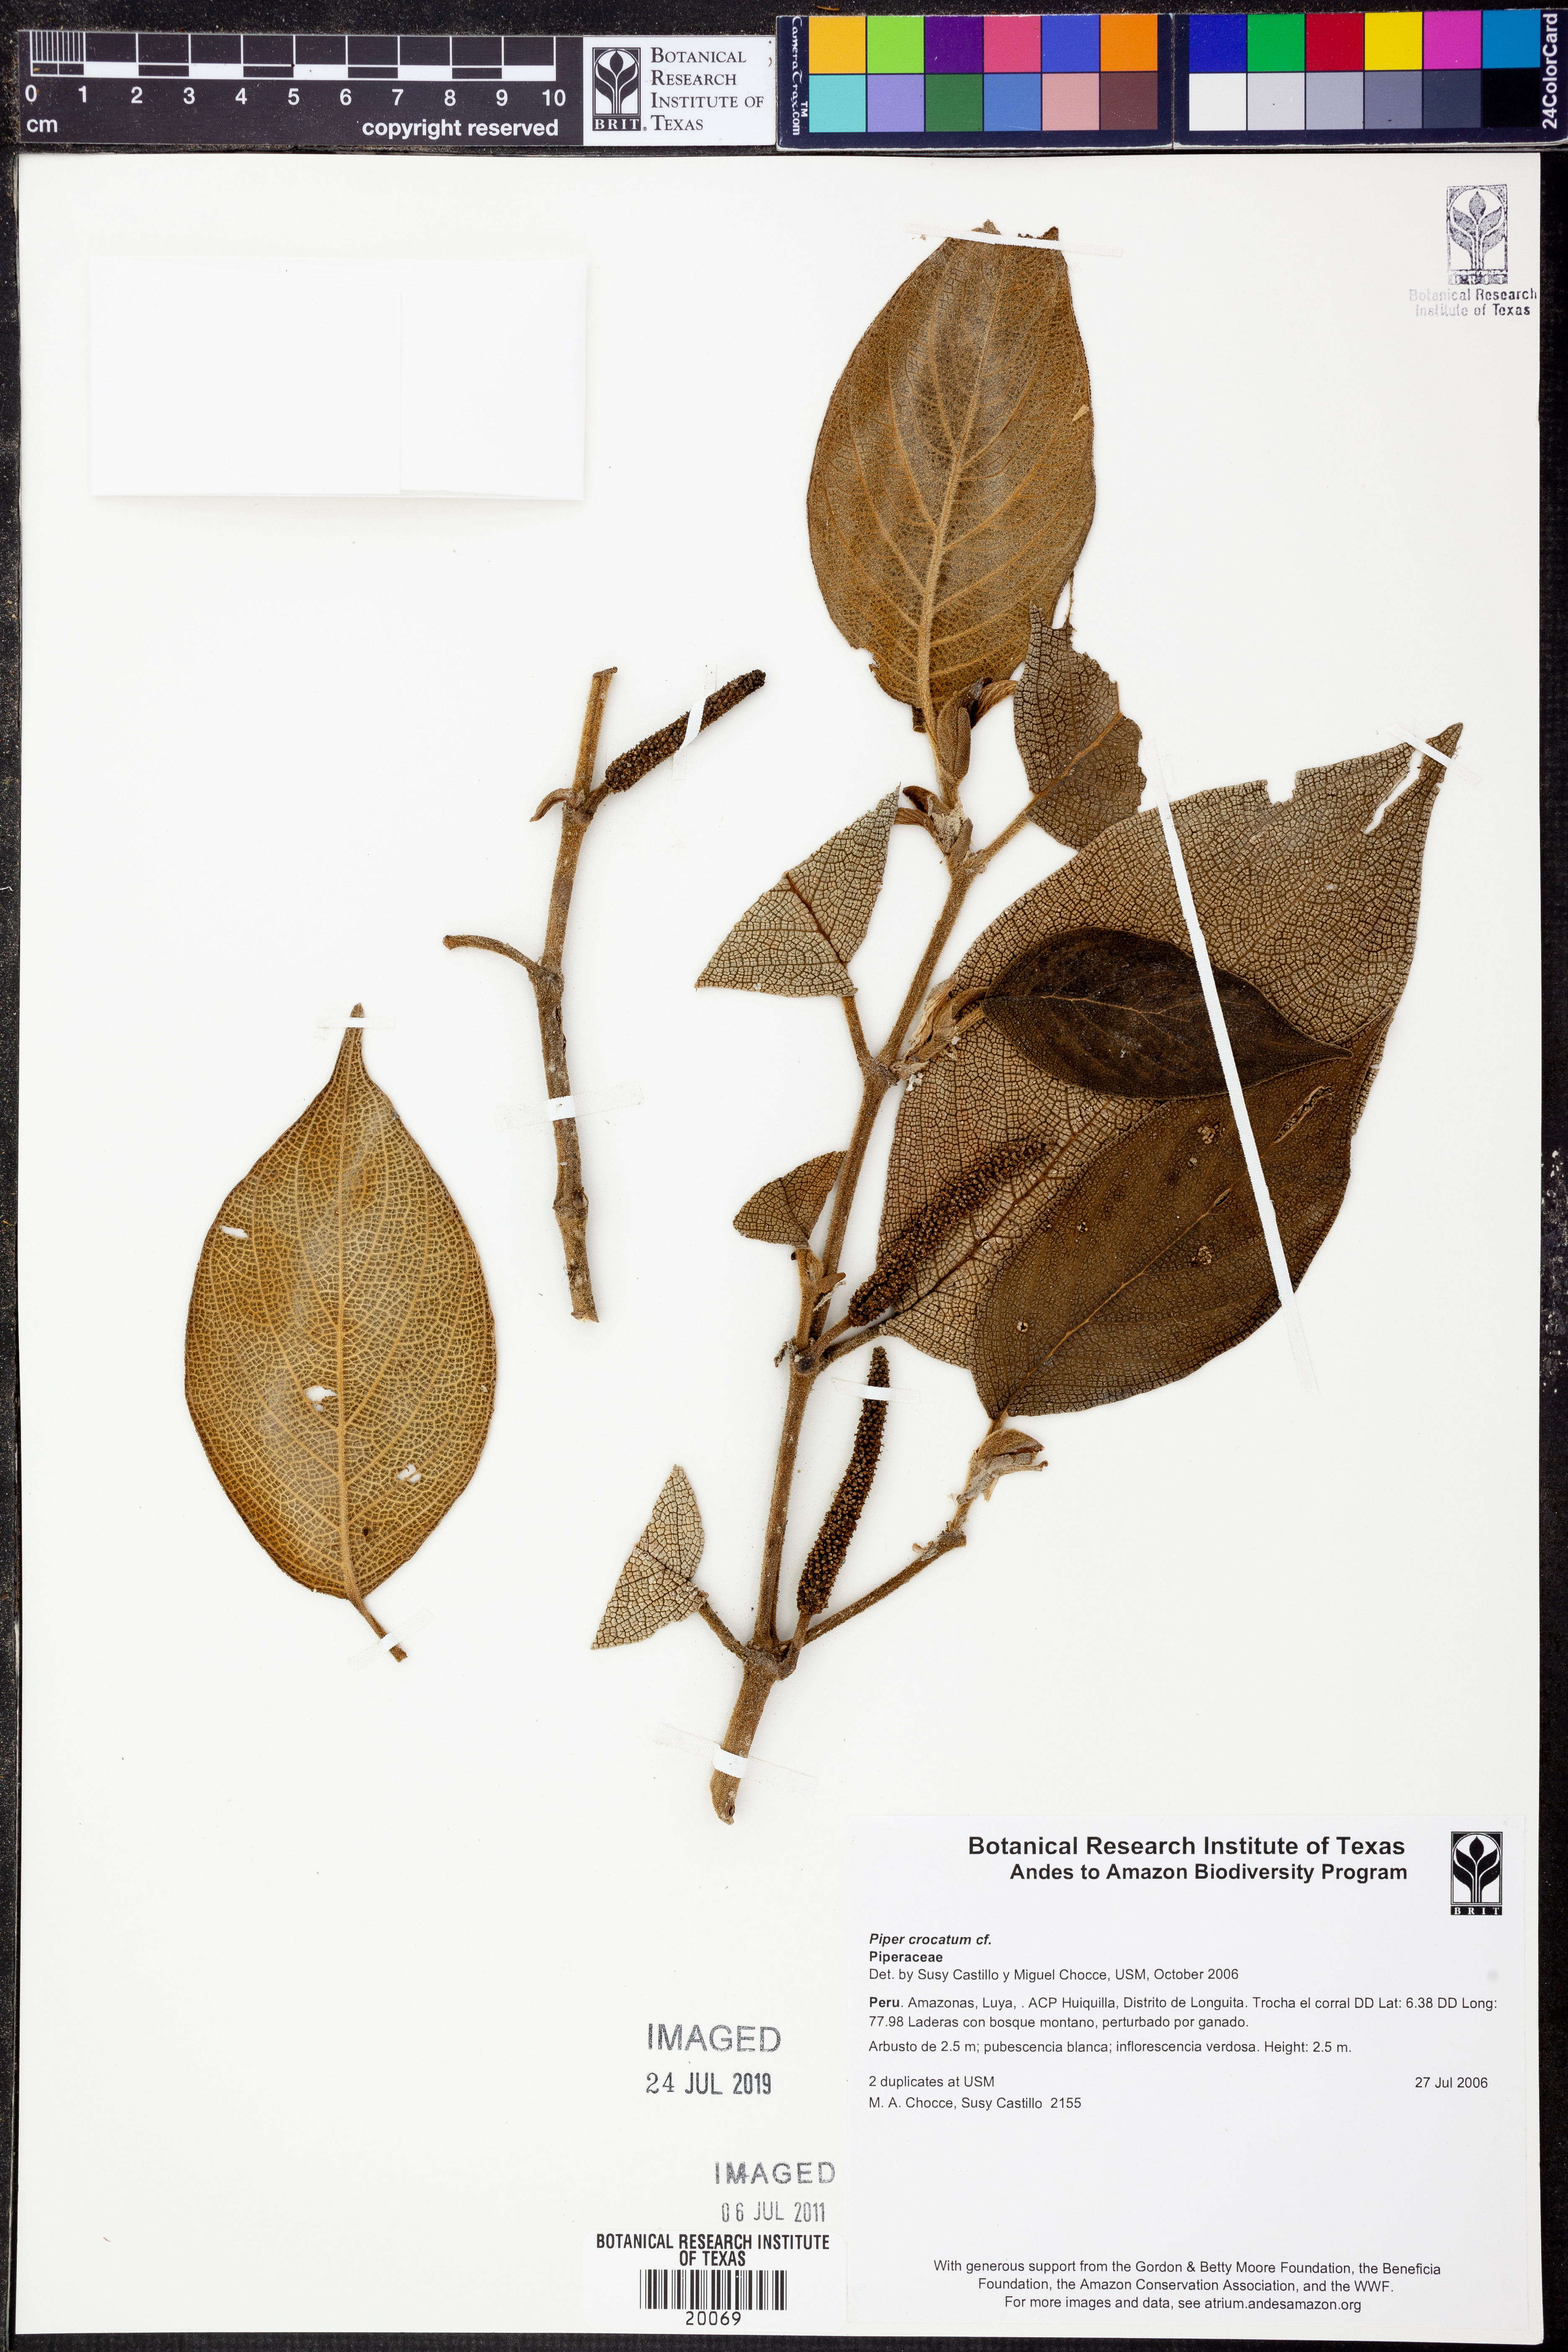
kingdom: Plantae
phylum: Tracheophyta
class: Magnoliopsida
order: Piperales
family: Piperaceae
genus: Piper
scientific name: Piper crocatum
